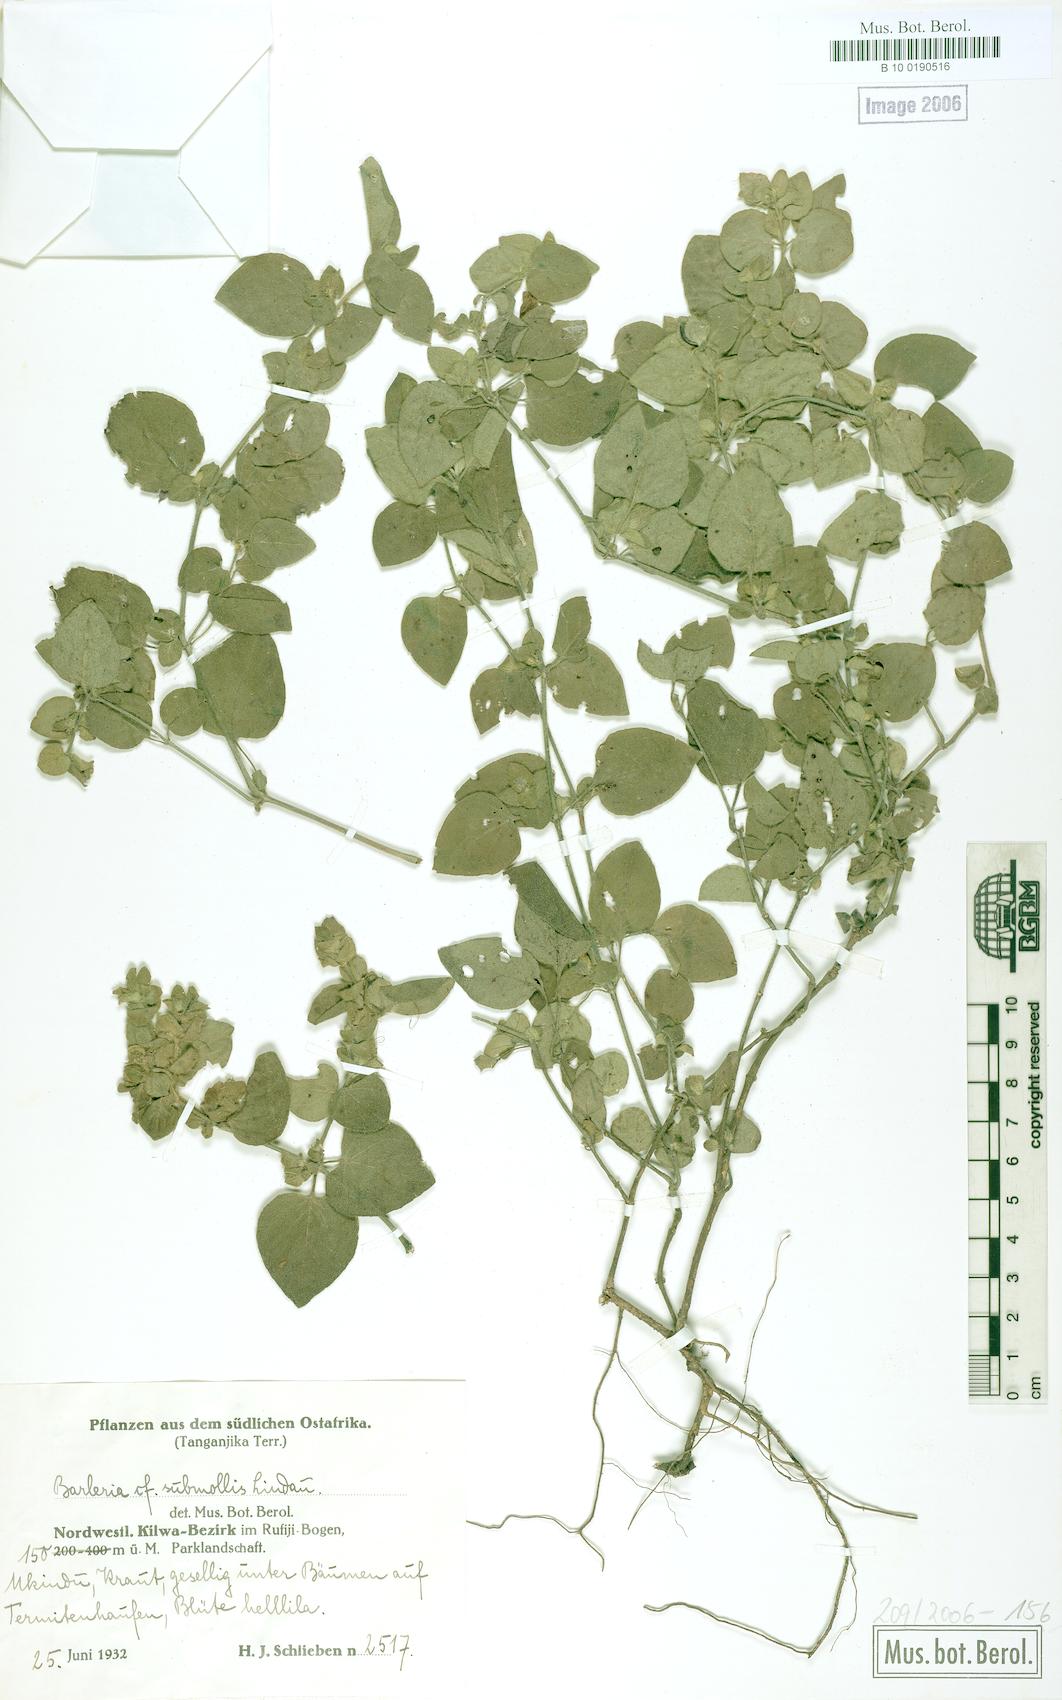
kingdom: Plantae
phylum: Tracheophyta
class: Magnoliopsida
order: Lamiales
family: Acanthaceae
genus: Barleria
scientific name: Barleria submollis
